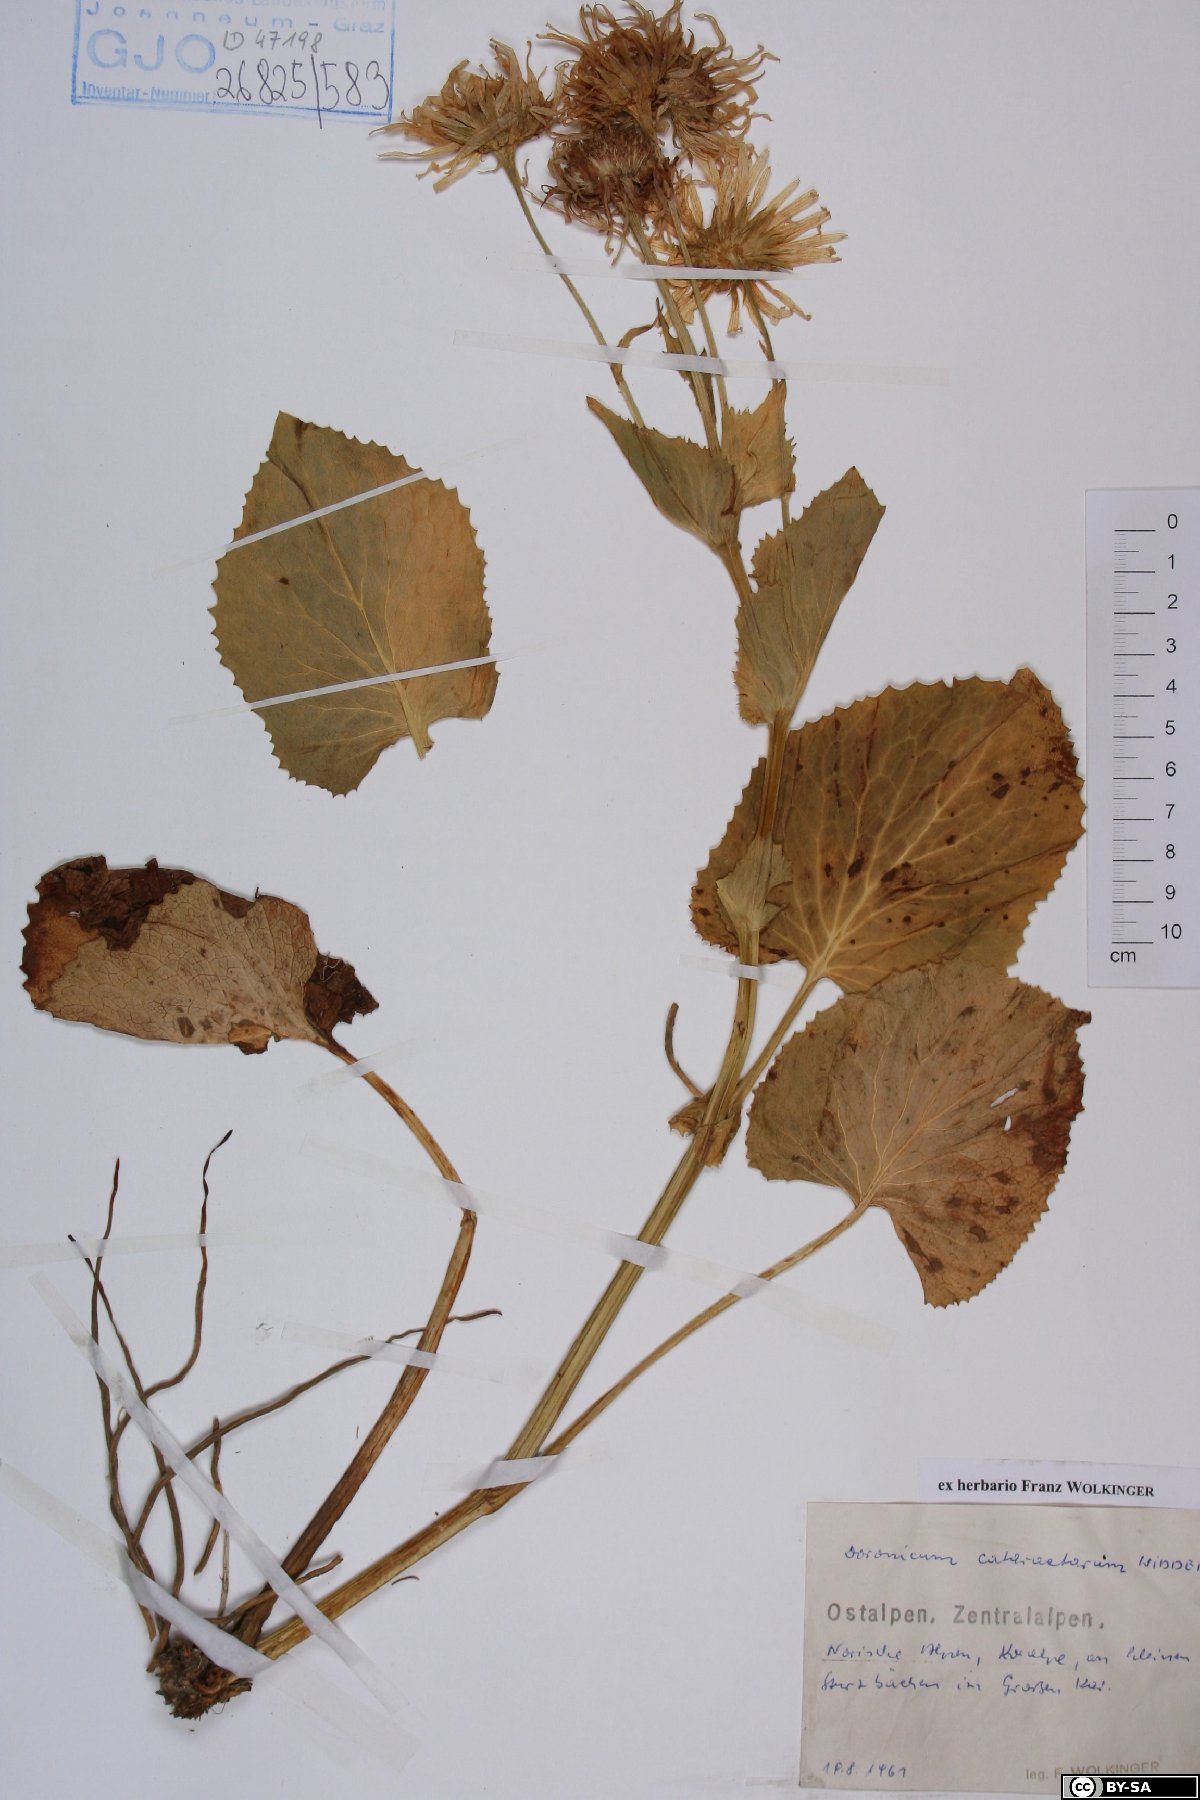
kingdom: Plantae
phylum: Tracheophyta
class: Magnoliopsida
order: Asterales
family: Asteraceae
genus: Doronicum
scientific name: Doronicum cataractarum
